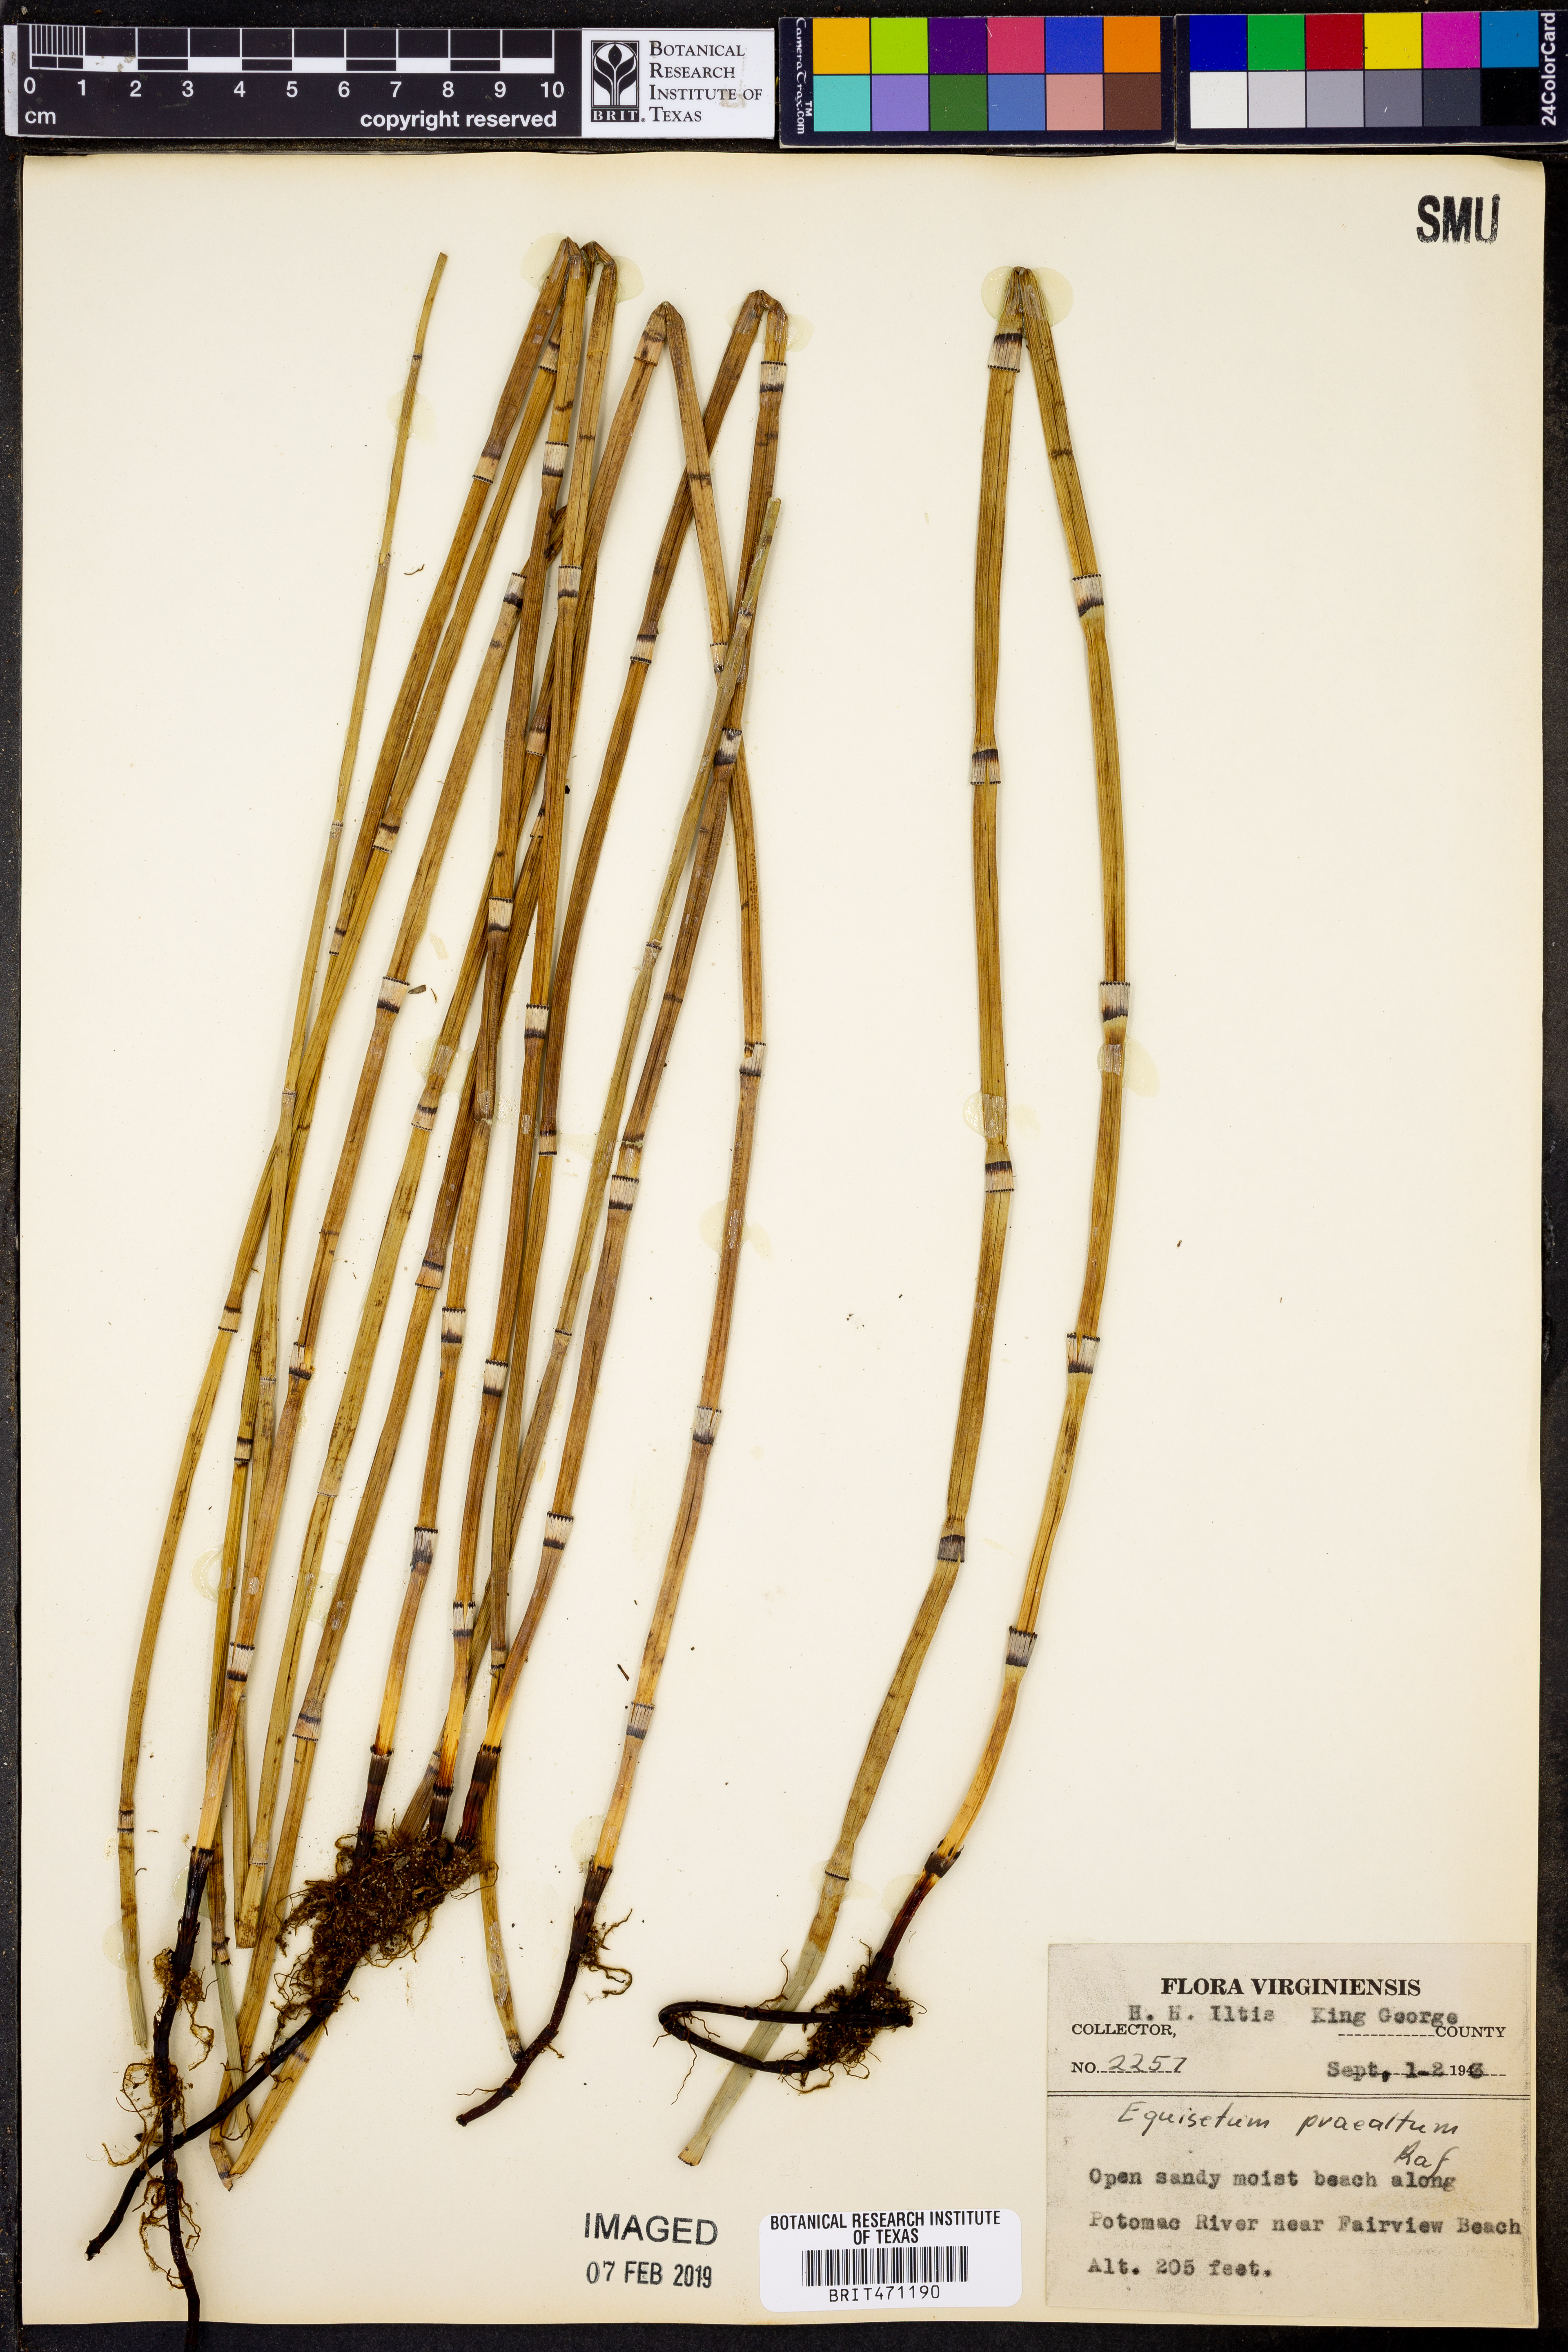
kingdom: Plantae
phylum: Tracheophyta
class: Polypodiopsida
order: Equisetales
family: Equisetaceae
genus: Equisetum
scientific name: Equisetum praealtum
